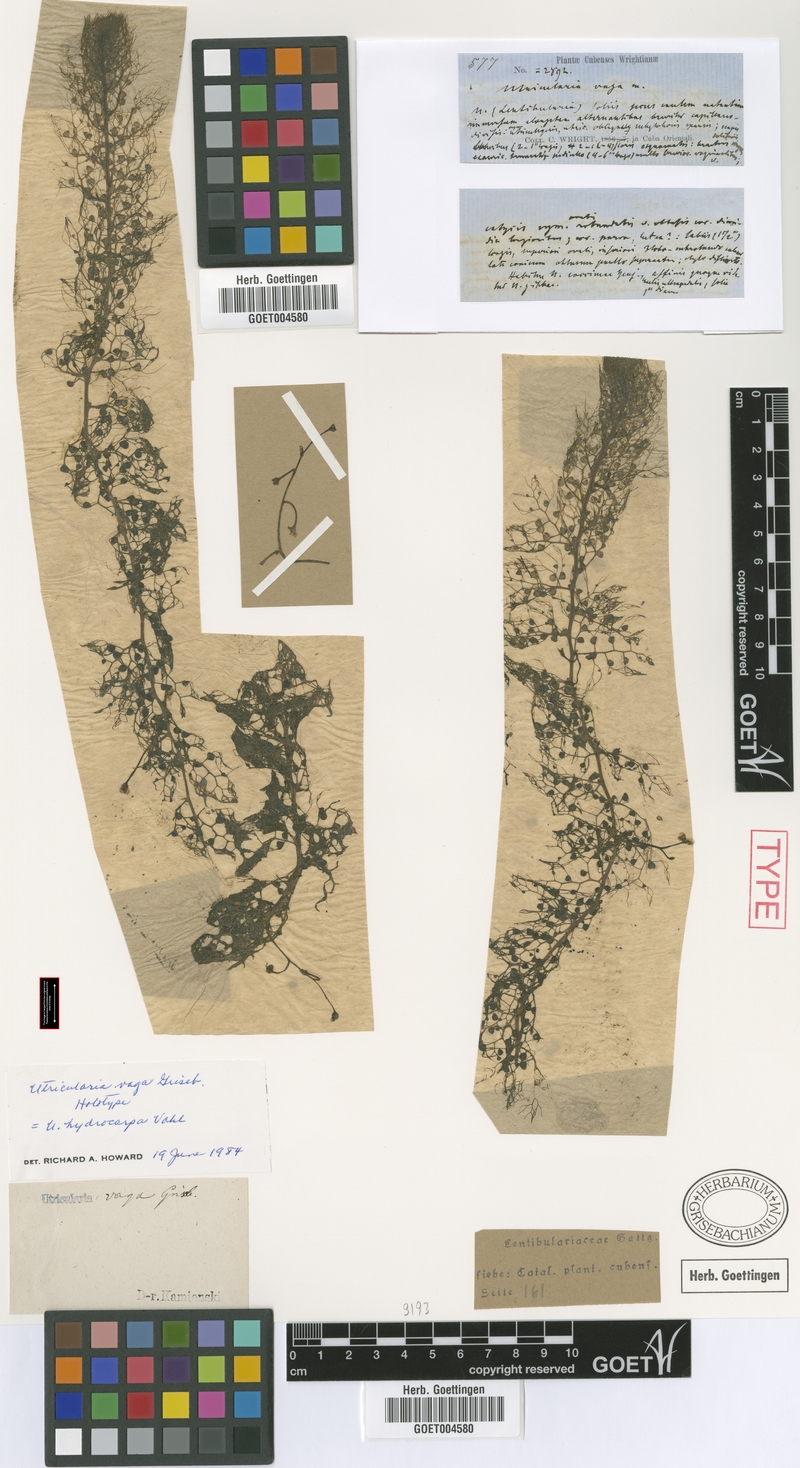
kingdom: Plantae
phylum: Tracheophyta
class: Magnoliopsida
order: Lamiales
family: Lentibulariaceae
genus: Utricularia
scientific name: Utricularia hydrocarpa
